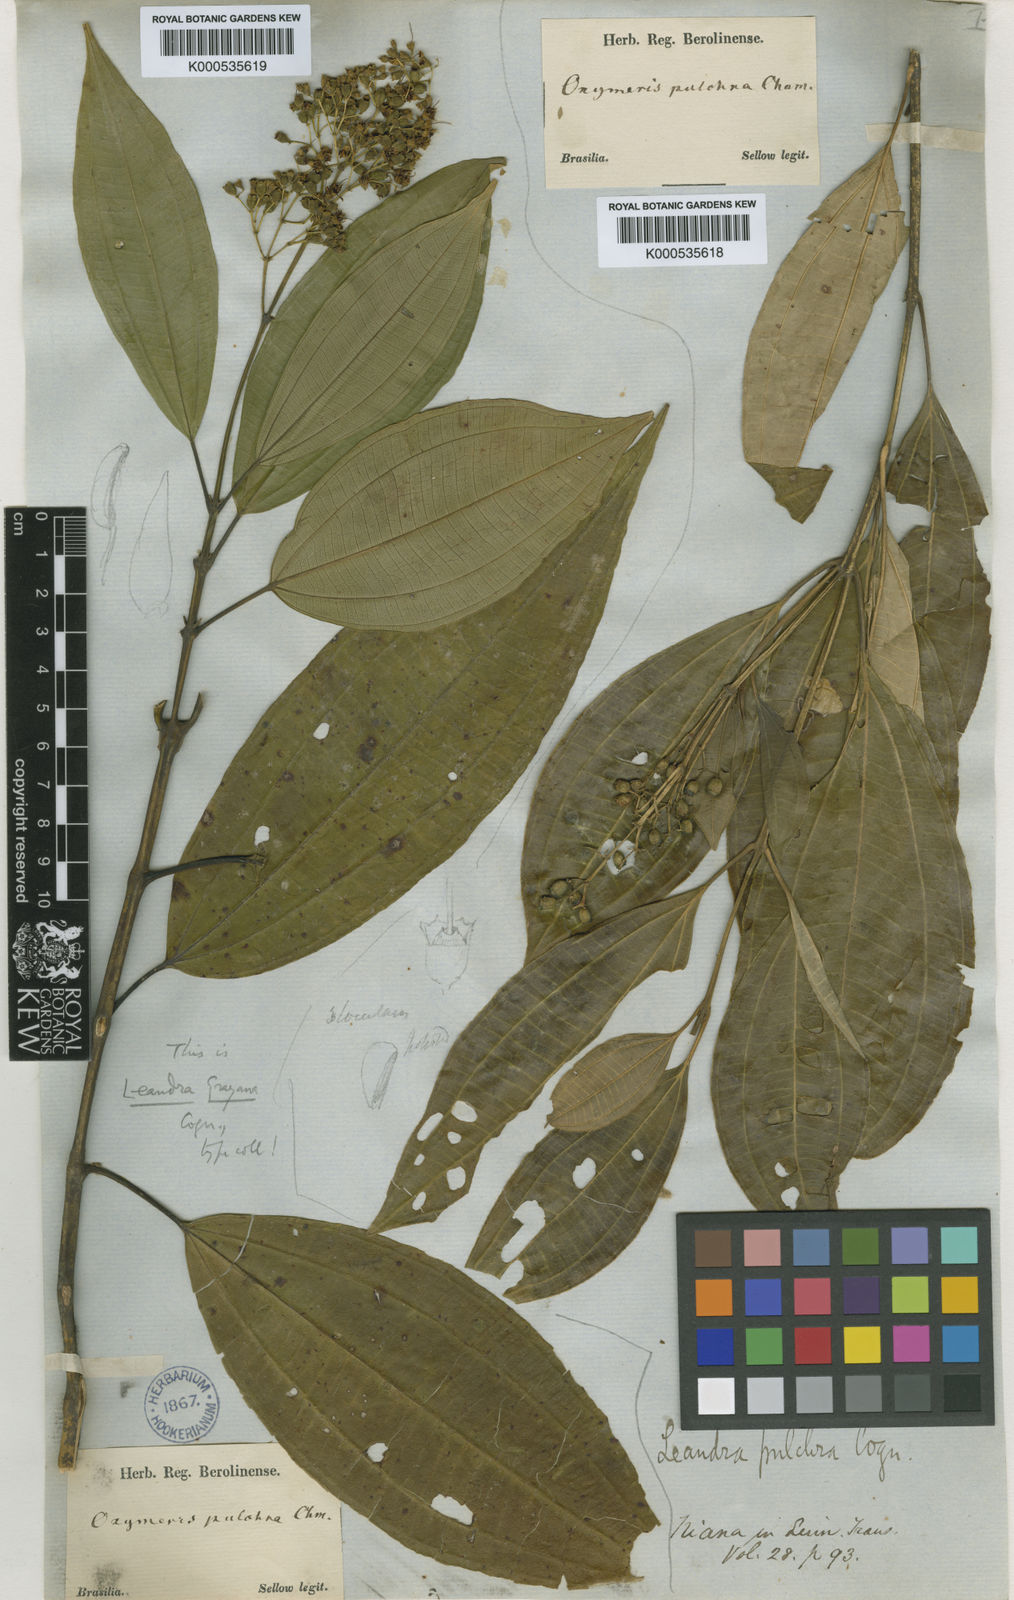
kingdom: Plantae
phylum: Tracheophyta
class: Magnoliopsida
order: Myrtales
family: Melastomataceae
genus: Miconia
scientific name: Miconia leagrayana
